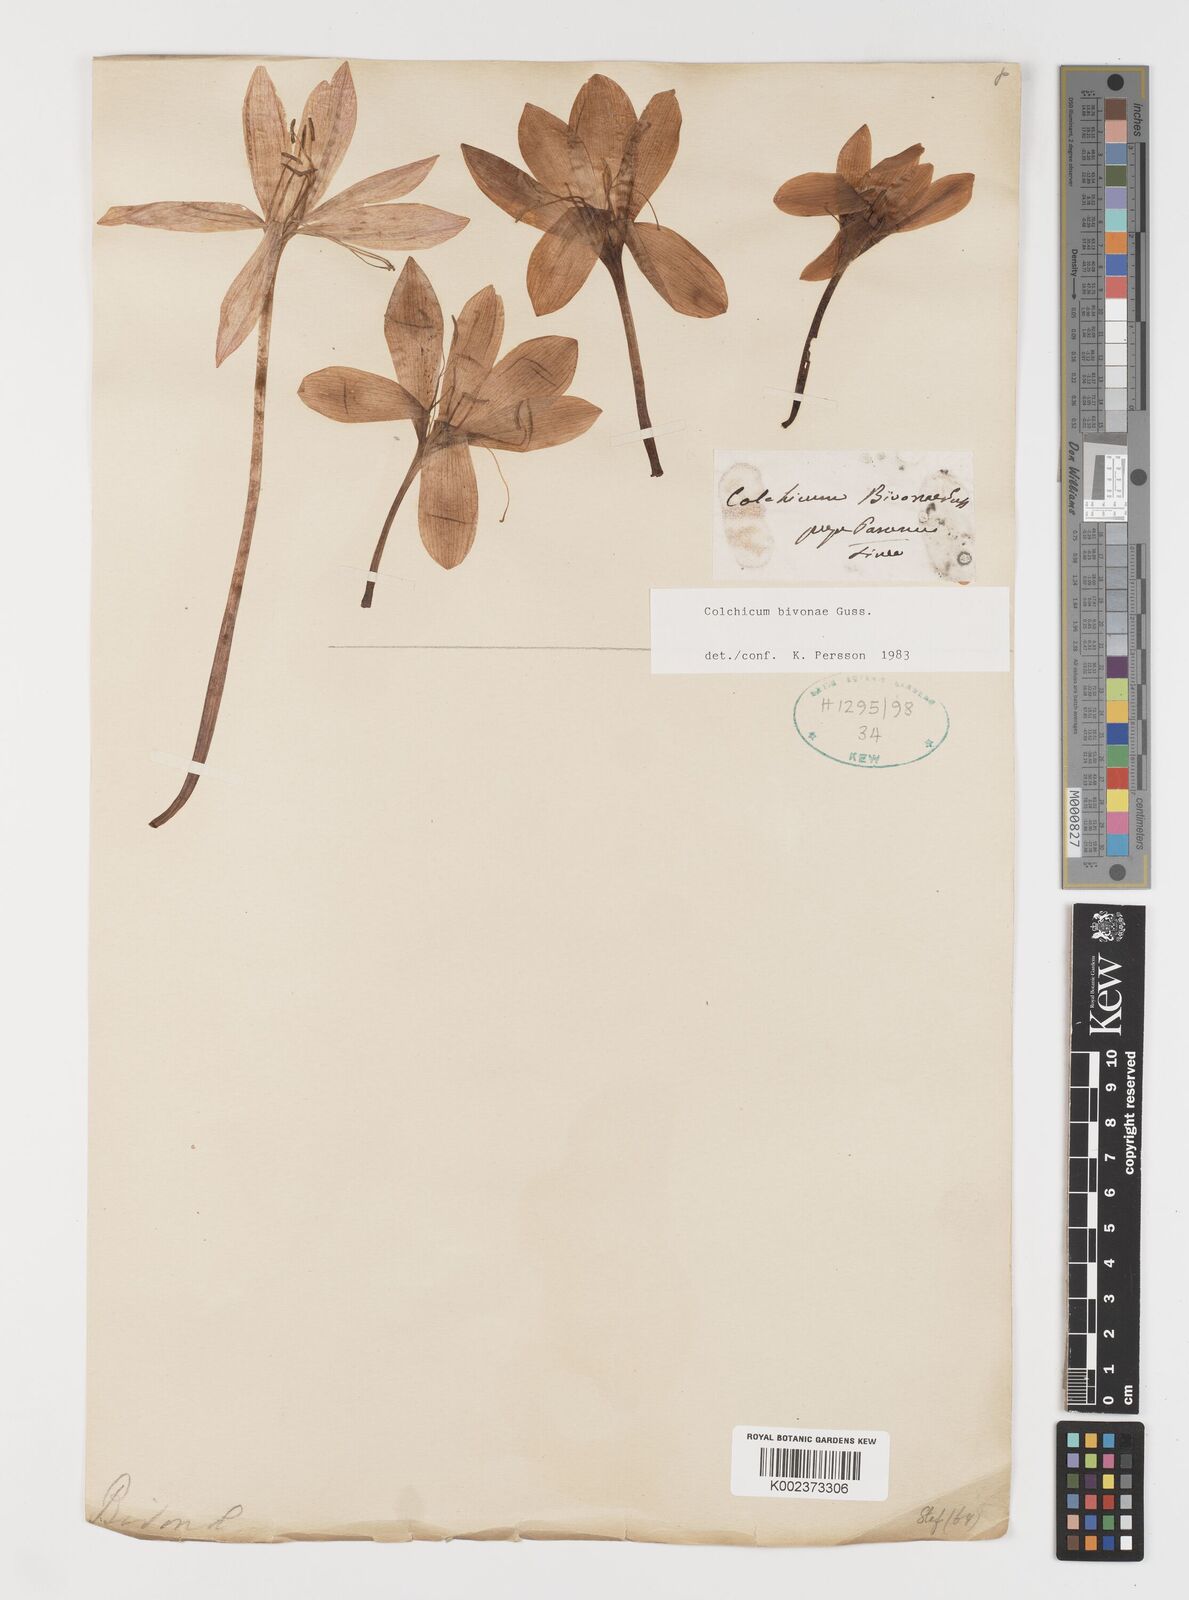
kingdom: Plantae
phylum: Tracheophyta
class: Liliopsida
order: Liliales
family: Colchicaceae
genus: Colchicum
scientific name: Colchicum bivonae
